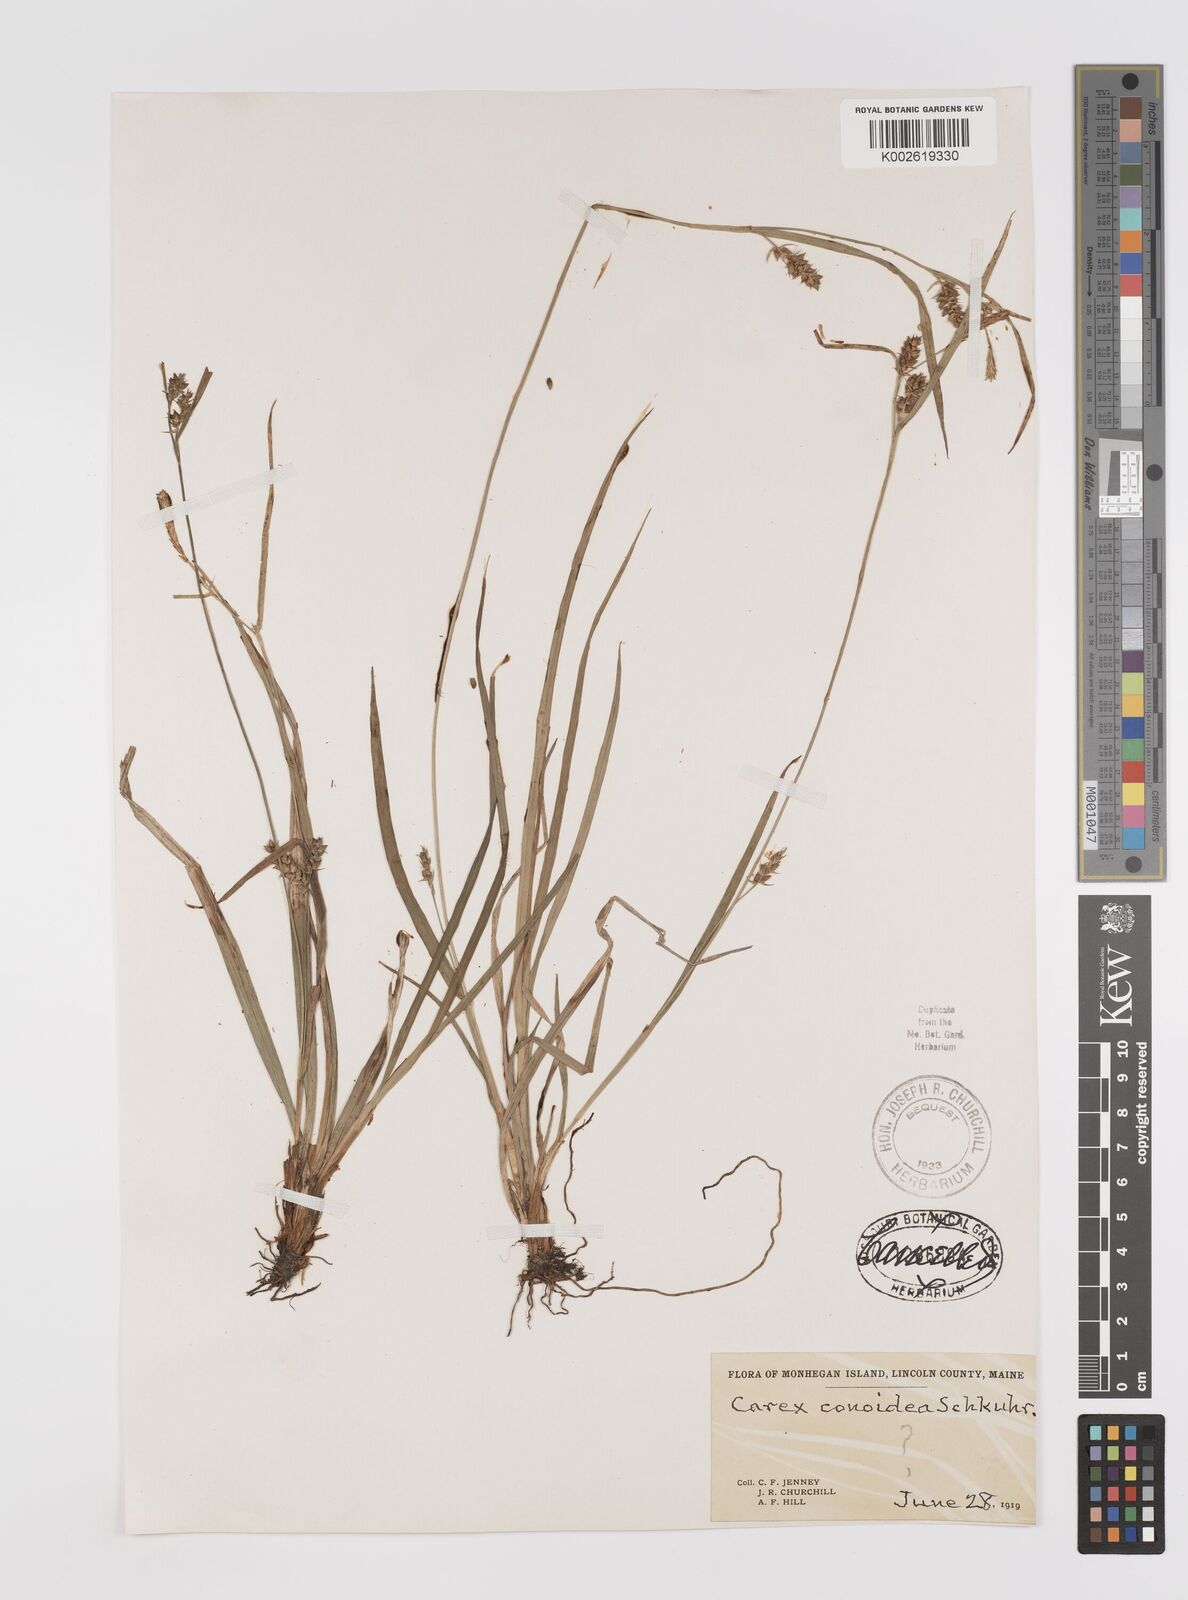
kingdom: Plantae
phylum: Tracheophyta
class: Liliopsida
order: Poales
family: Cyperaceae
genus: Carex
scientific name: Carex conoidea
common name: Cone shaped sedge
